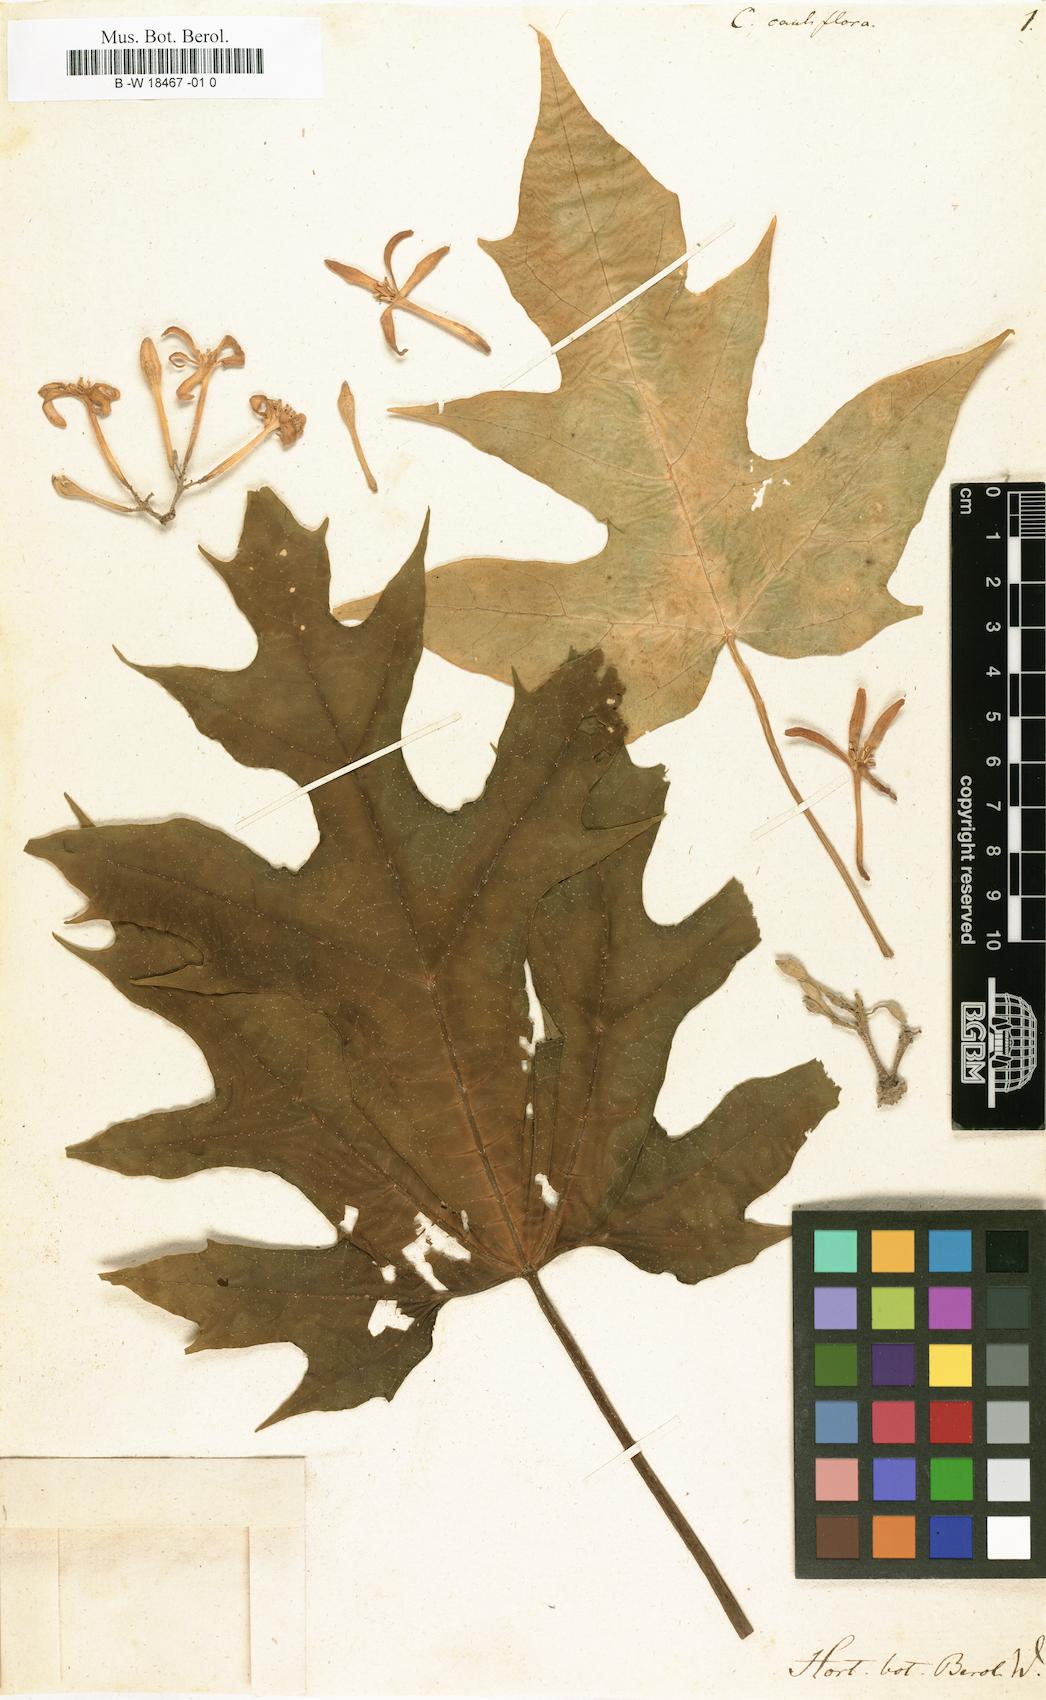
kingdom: Plantae
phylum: Tracheophyta
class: Magnoliopsida
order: Brassicales
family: Caricaceae
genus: Vasconcellea
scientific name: Vasconcellea cauliflora
